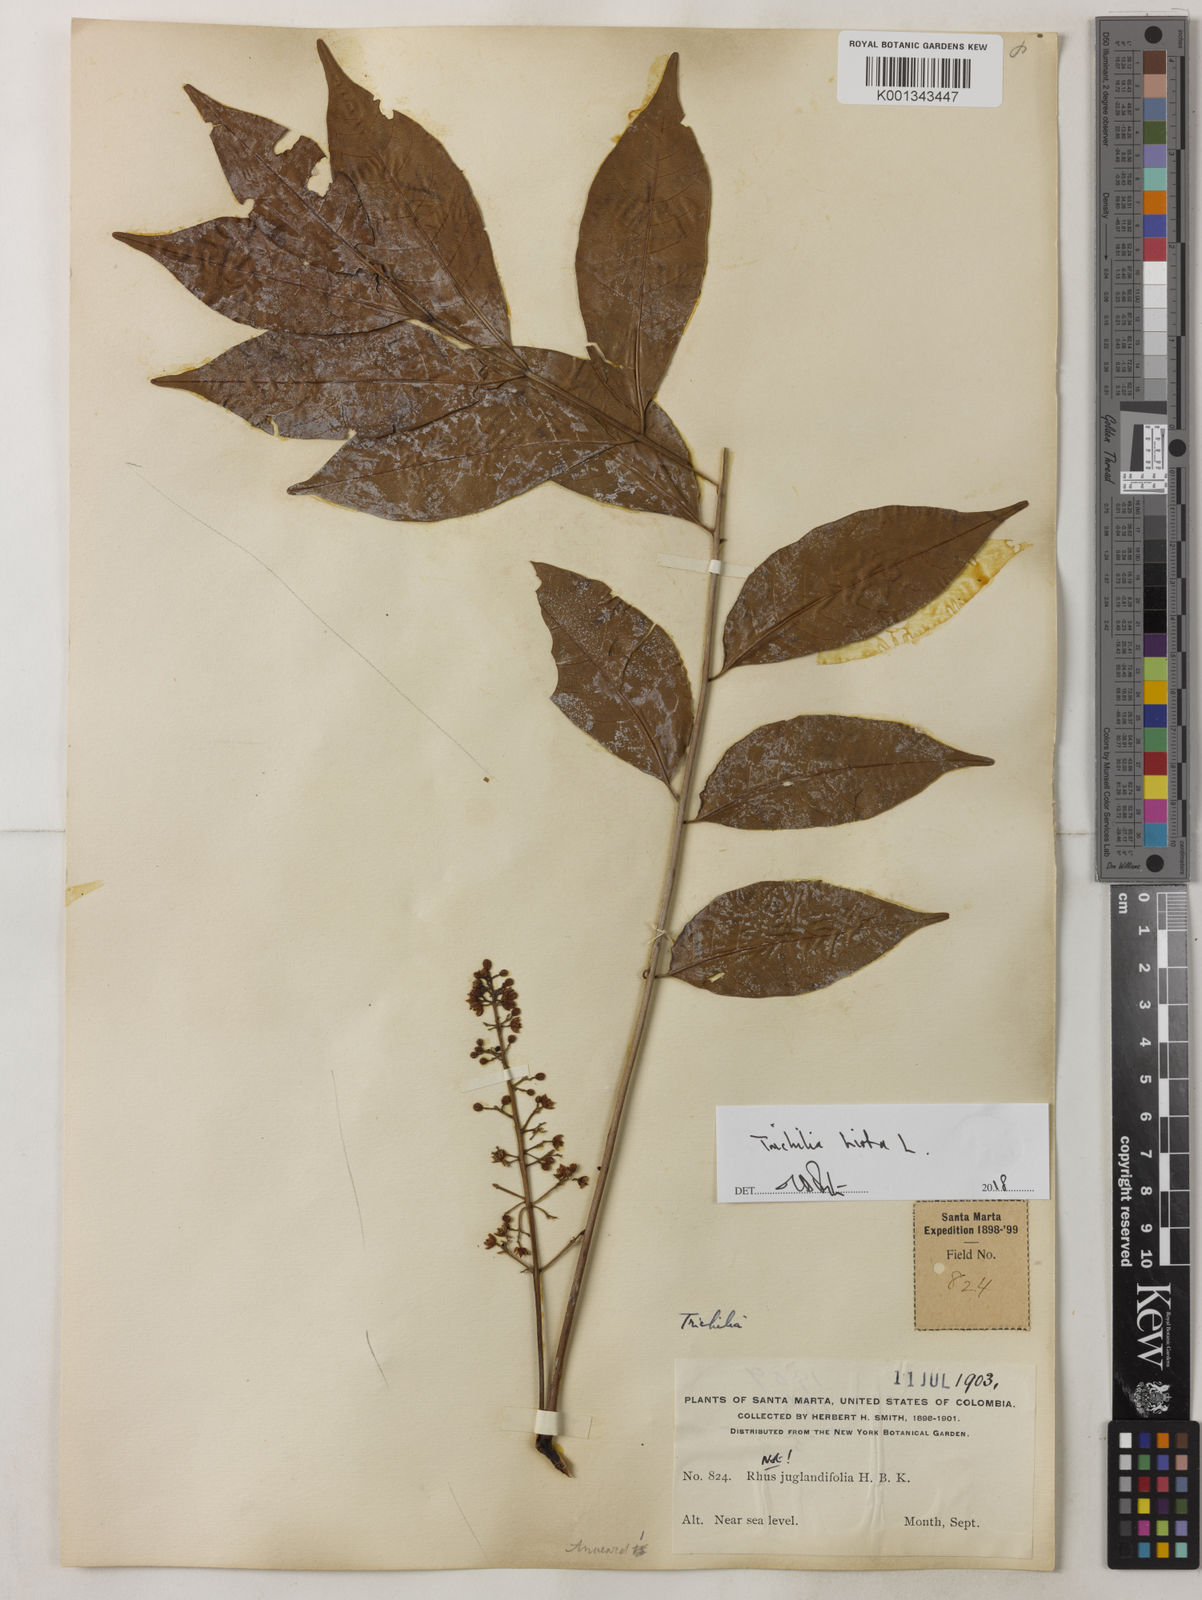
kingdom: Plantae
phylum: Tracheophyta
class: Magnoliopsida
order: Sapindales
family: Meliaceae
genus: Trichilia
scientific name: Trichilia hirta
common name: Red-cedar
